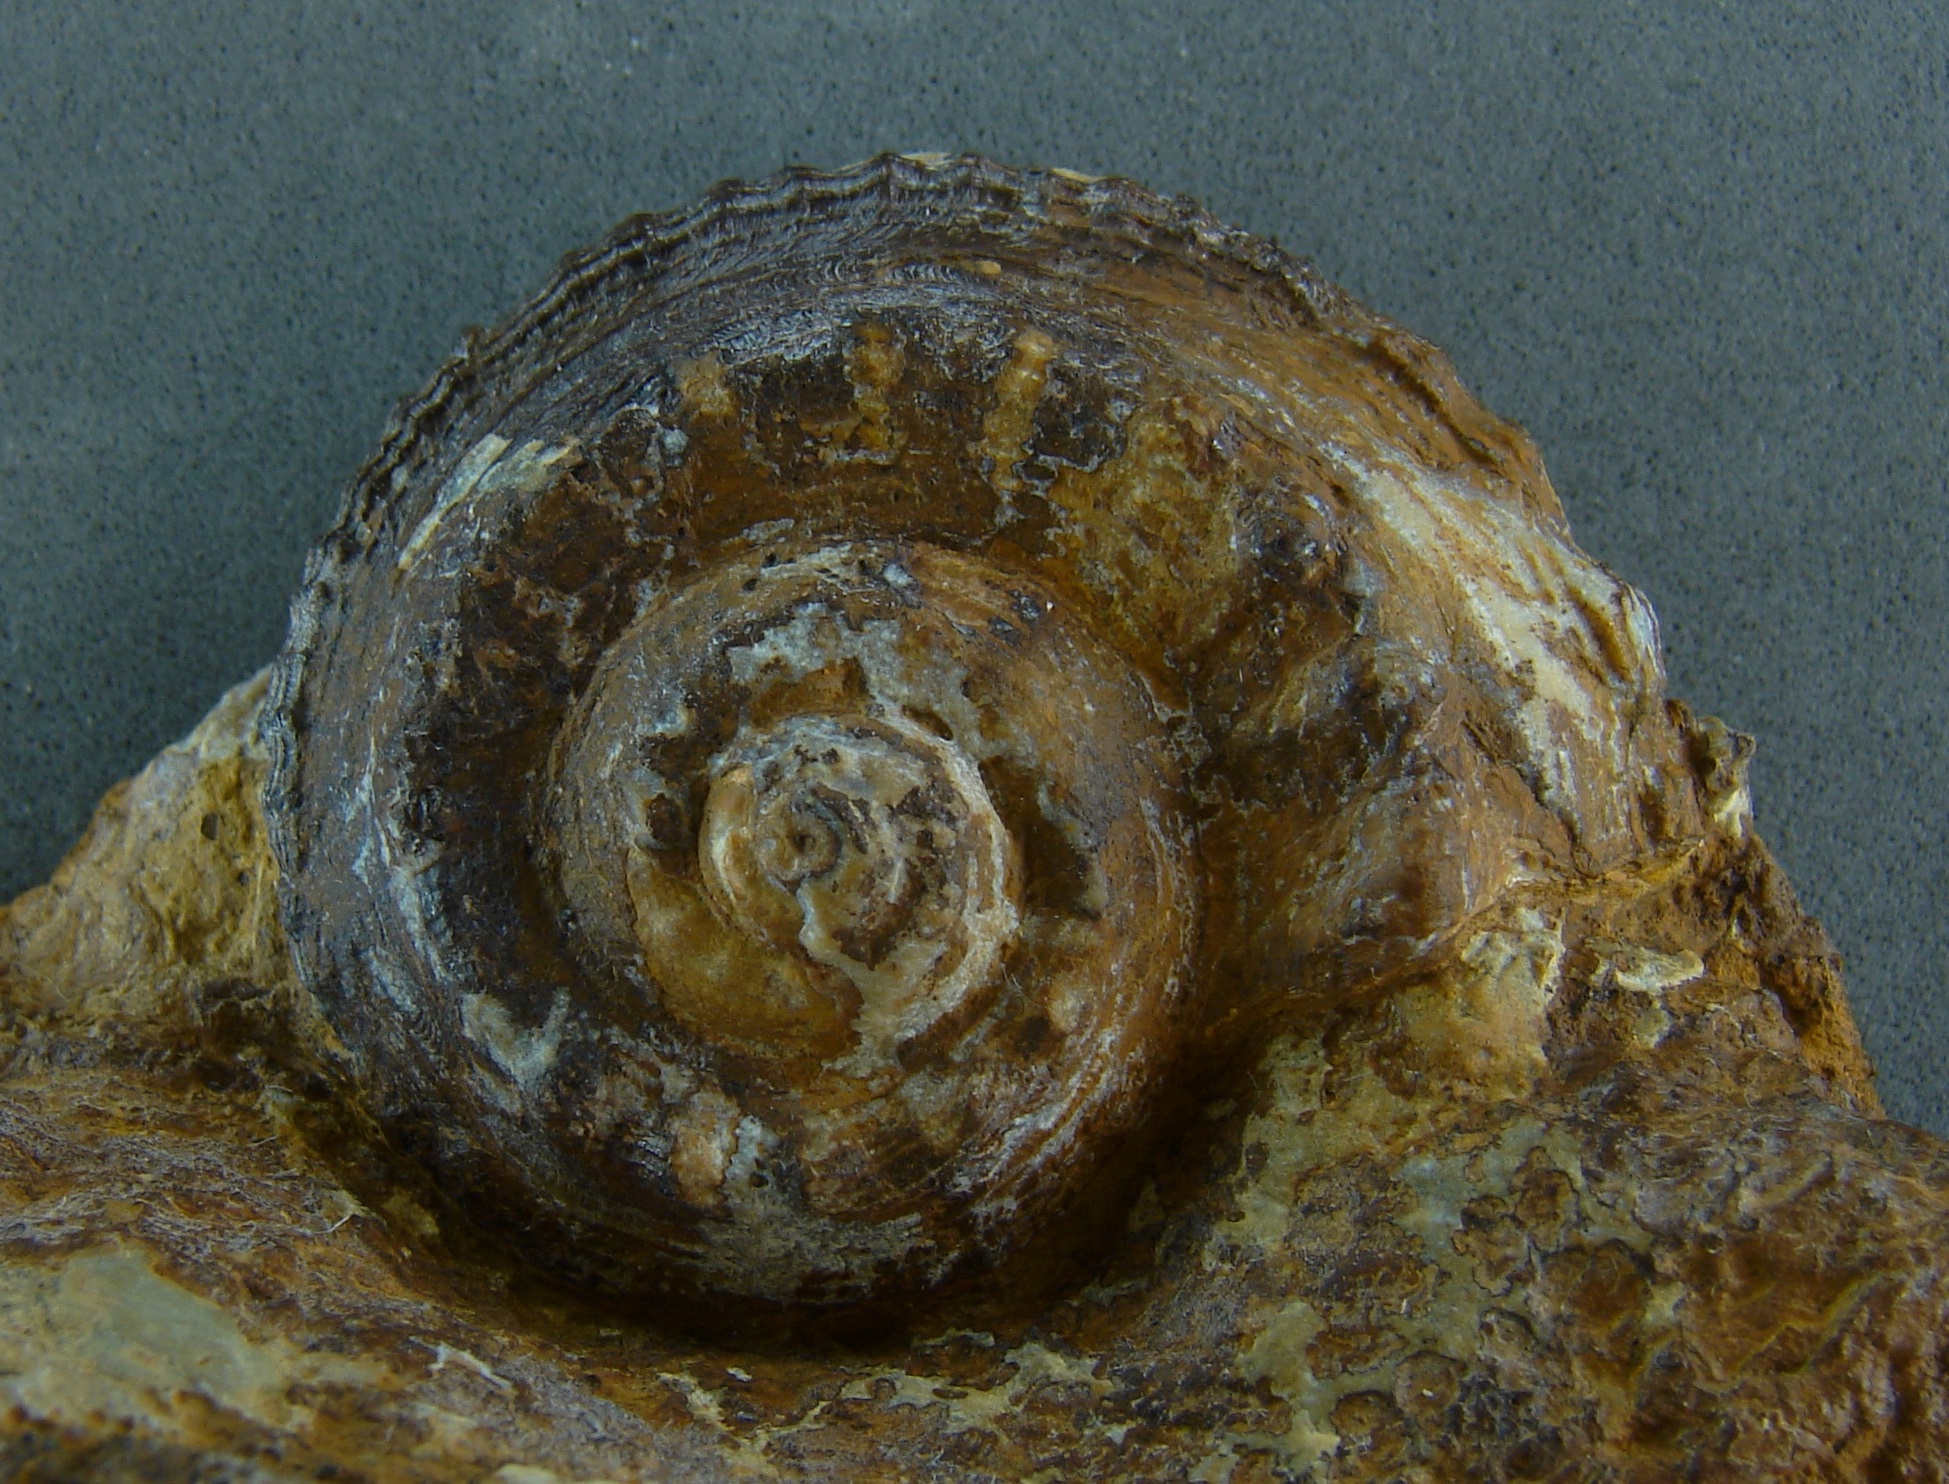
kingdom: Animalia
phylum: Mollusca
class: Gastropoda
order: Pleurotomariida
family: Pleurotomariidae
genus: Pleurotomaria
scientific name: Pleurotomaria
